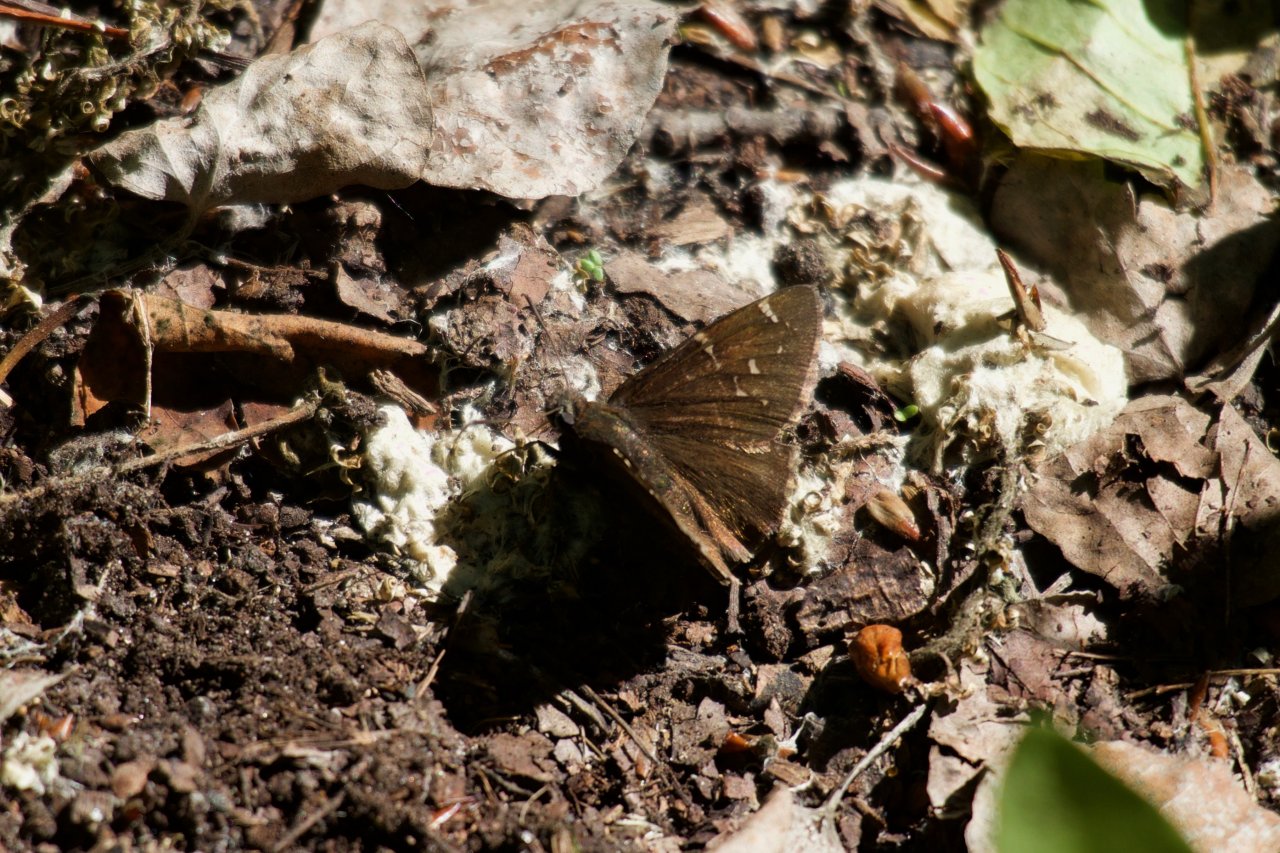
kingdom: Animalia
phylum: Arthropoda
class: Insecta
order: Lepidoptera
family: Hesperiidae
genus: Autochton
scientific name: Autochton
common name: Northern Cloudywing
